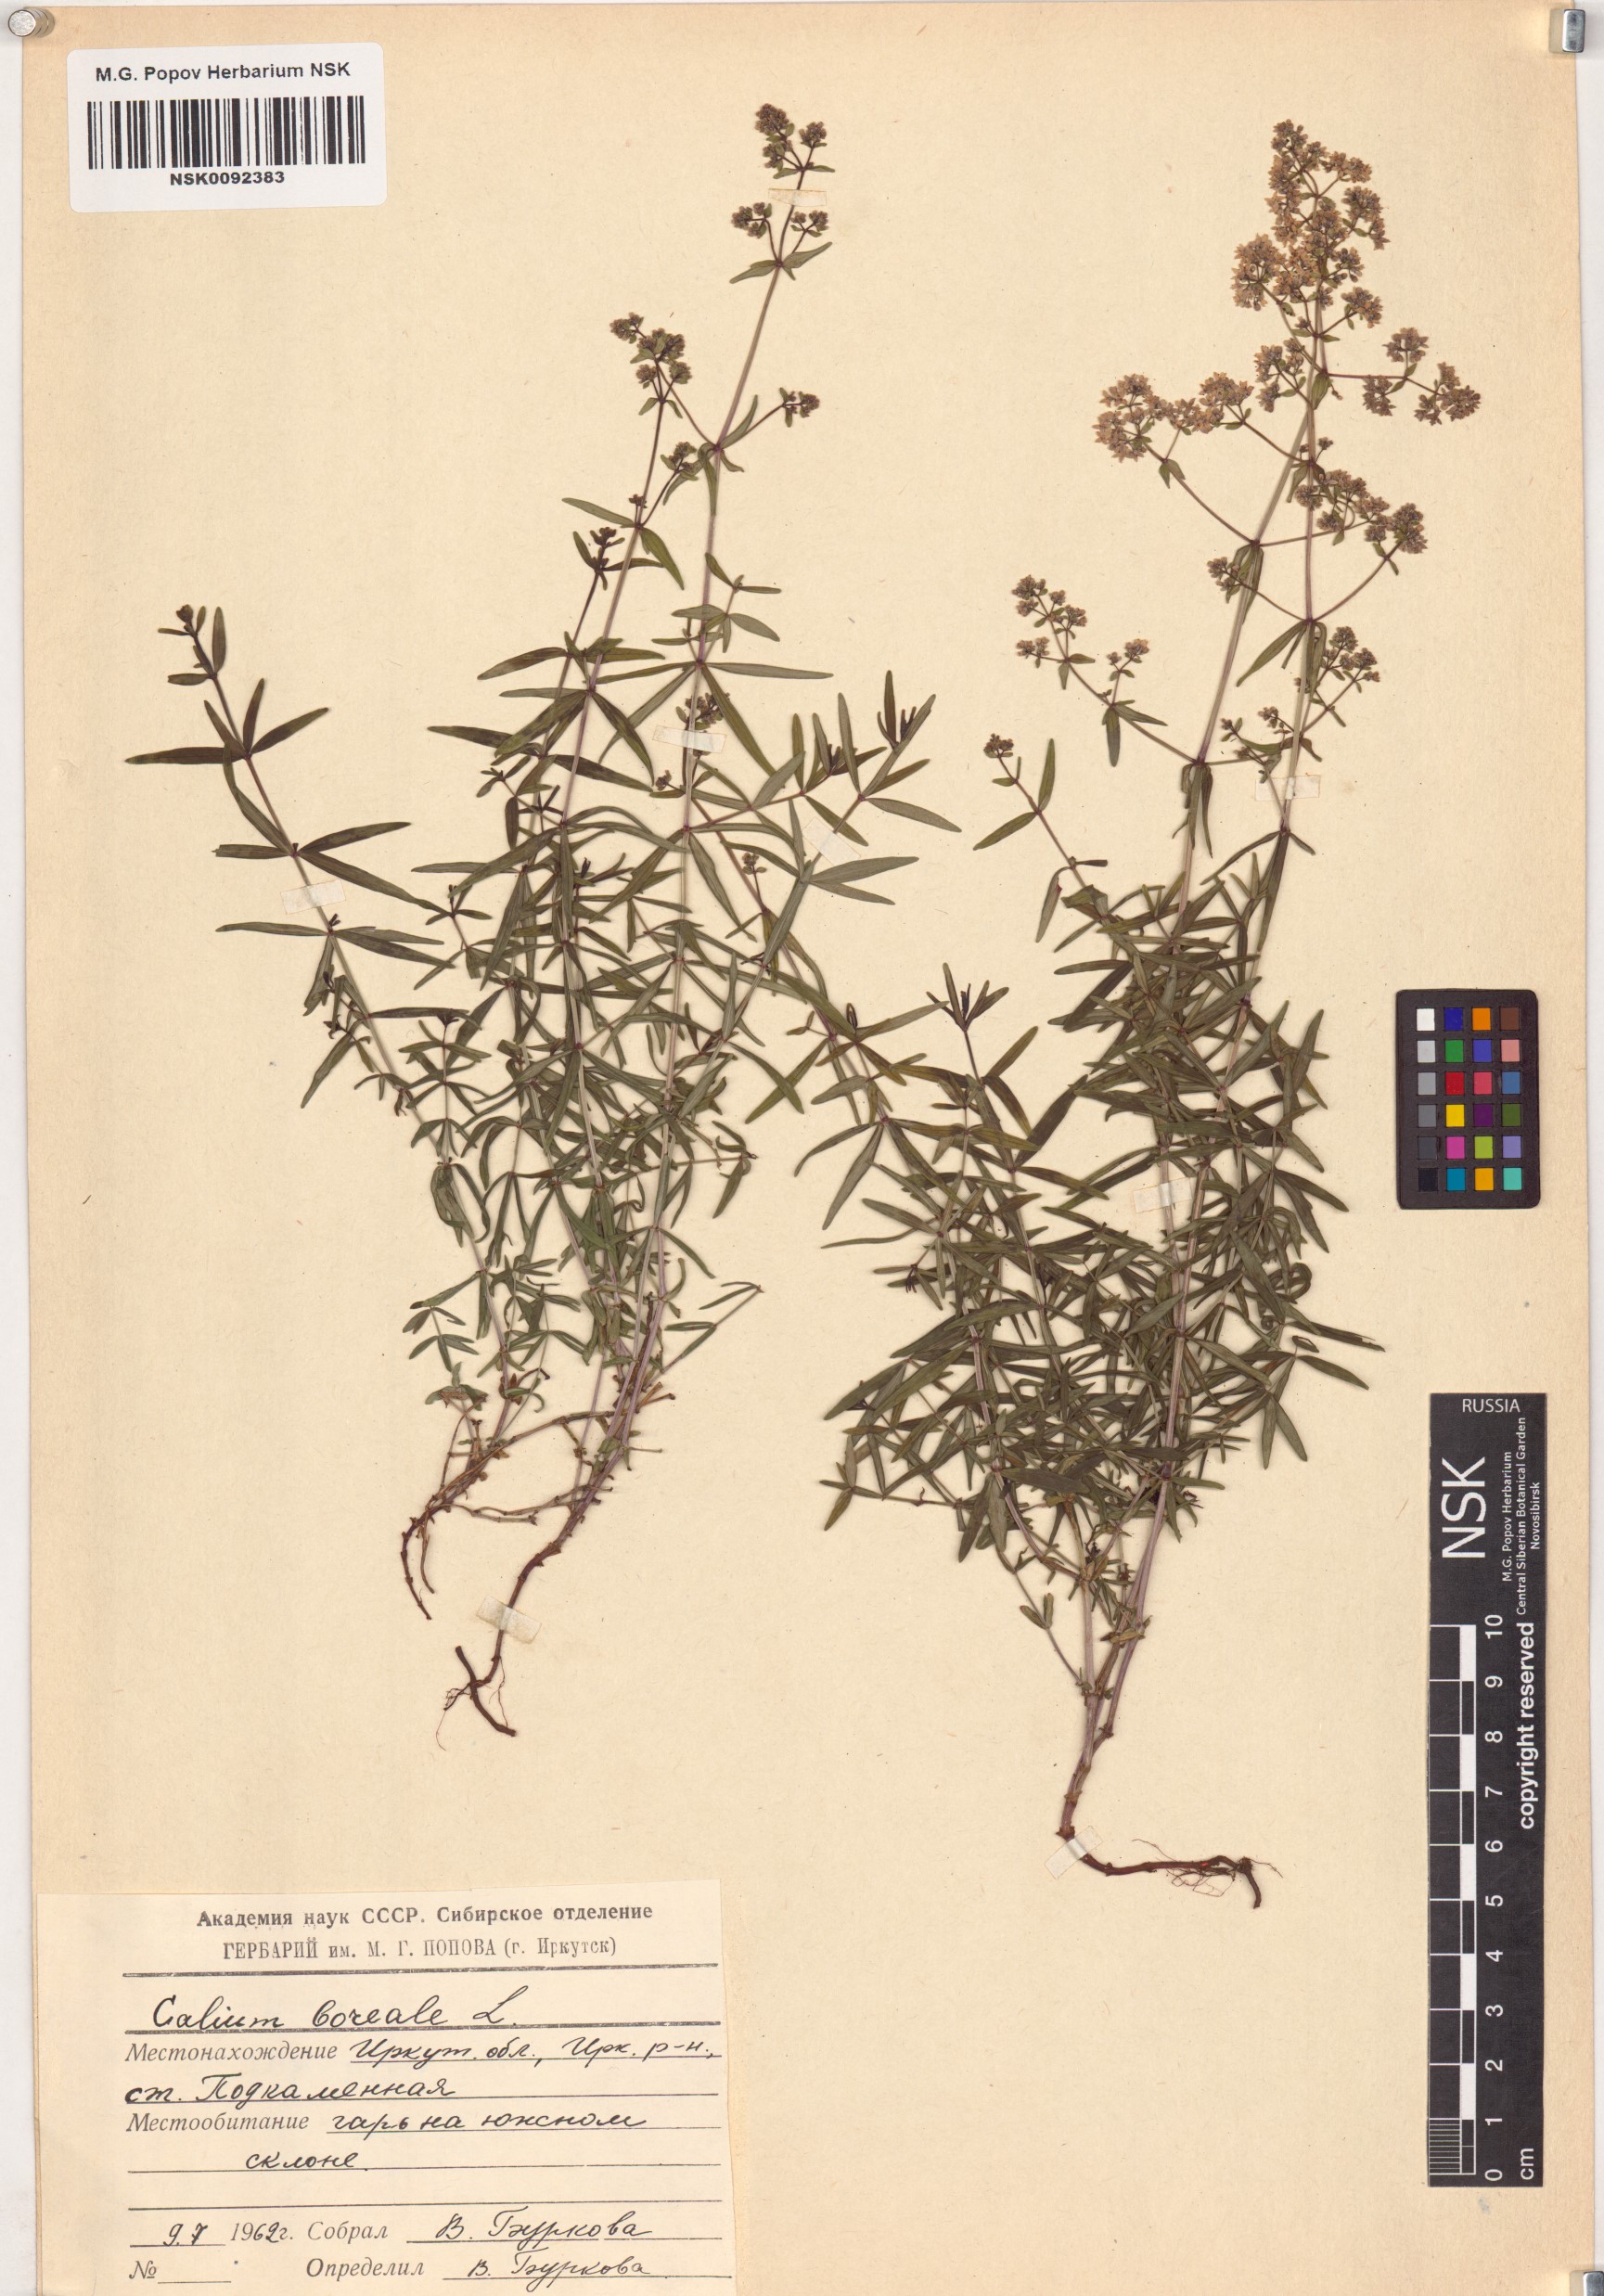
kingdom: Plantae
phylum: Tracheophyta
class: Magnoliopsida
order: Gentianales
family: Rubiaceae
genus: Galium
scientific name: Galium boreale
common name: Northern bedstraw
